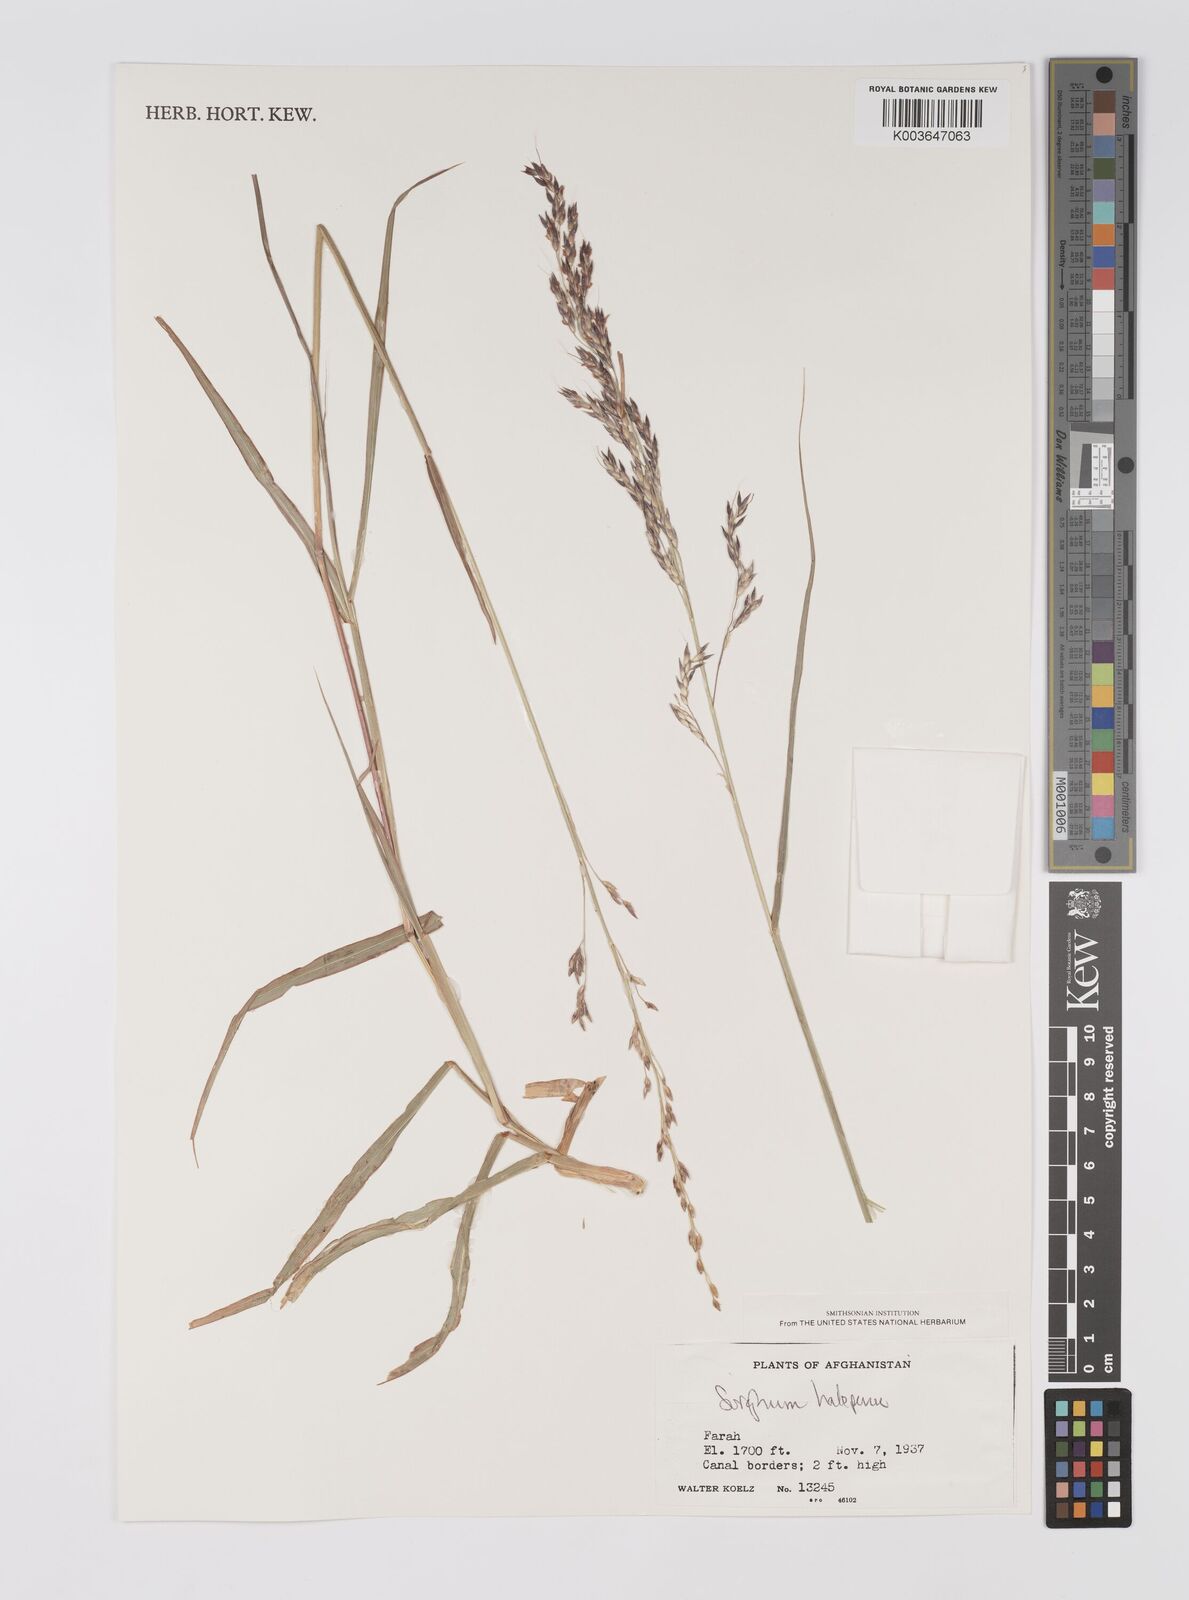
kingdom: Plantae
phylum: Tracheophyta
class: Liliopsida
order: Poales
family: Poaceae
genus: Sorghum
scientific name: Sorghum halepense
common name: Johnson-grass
